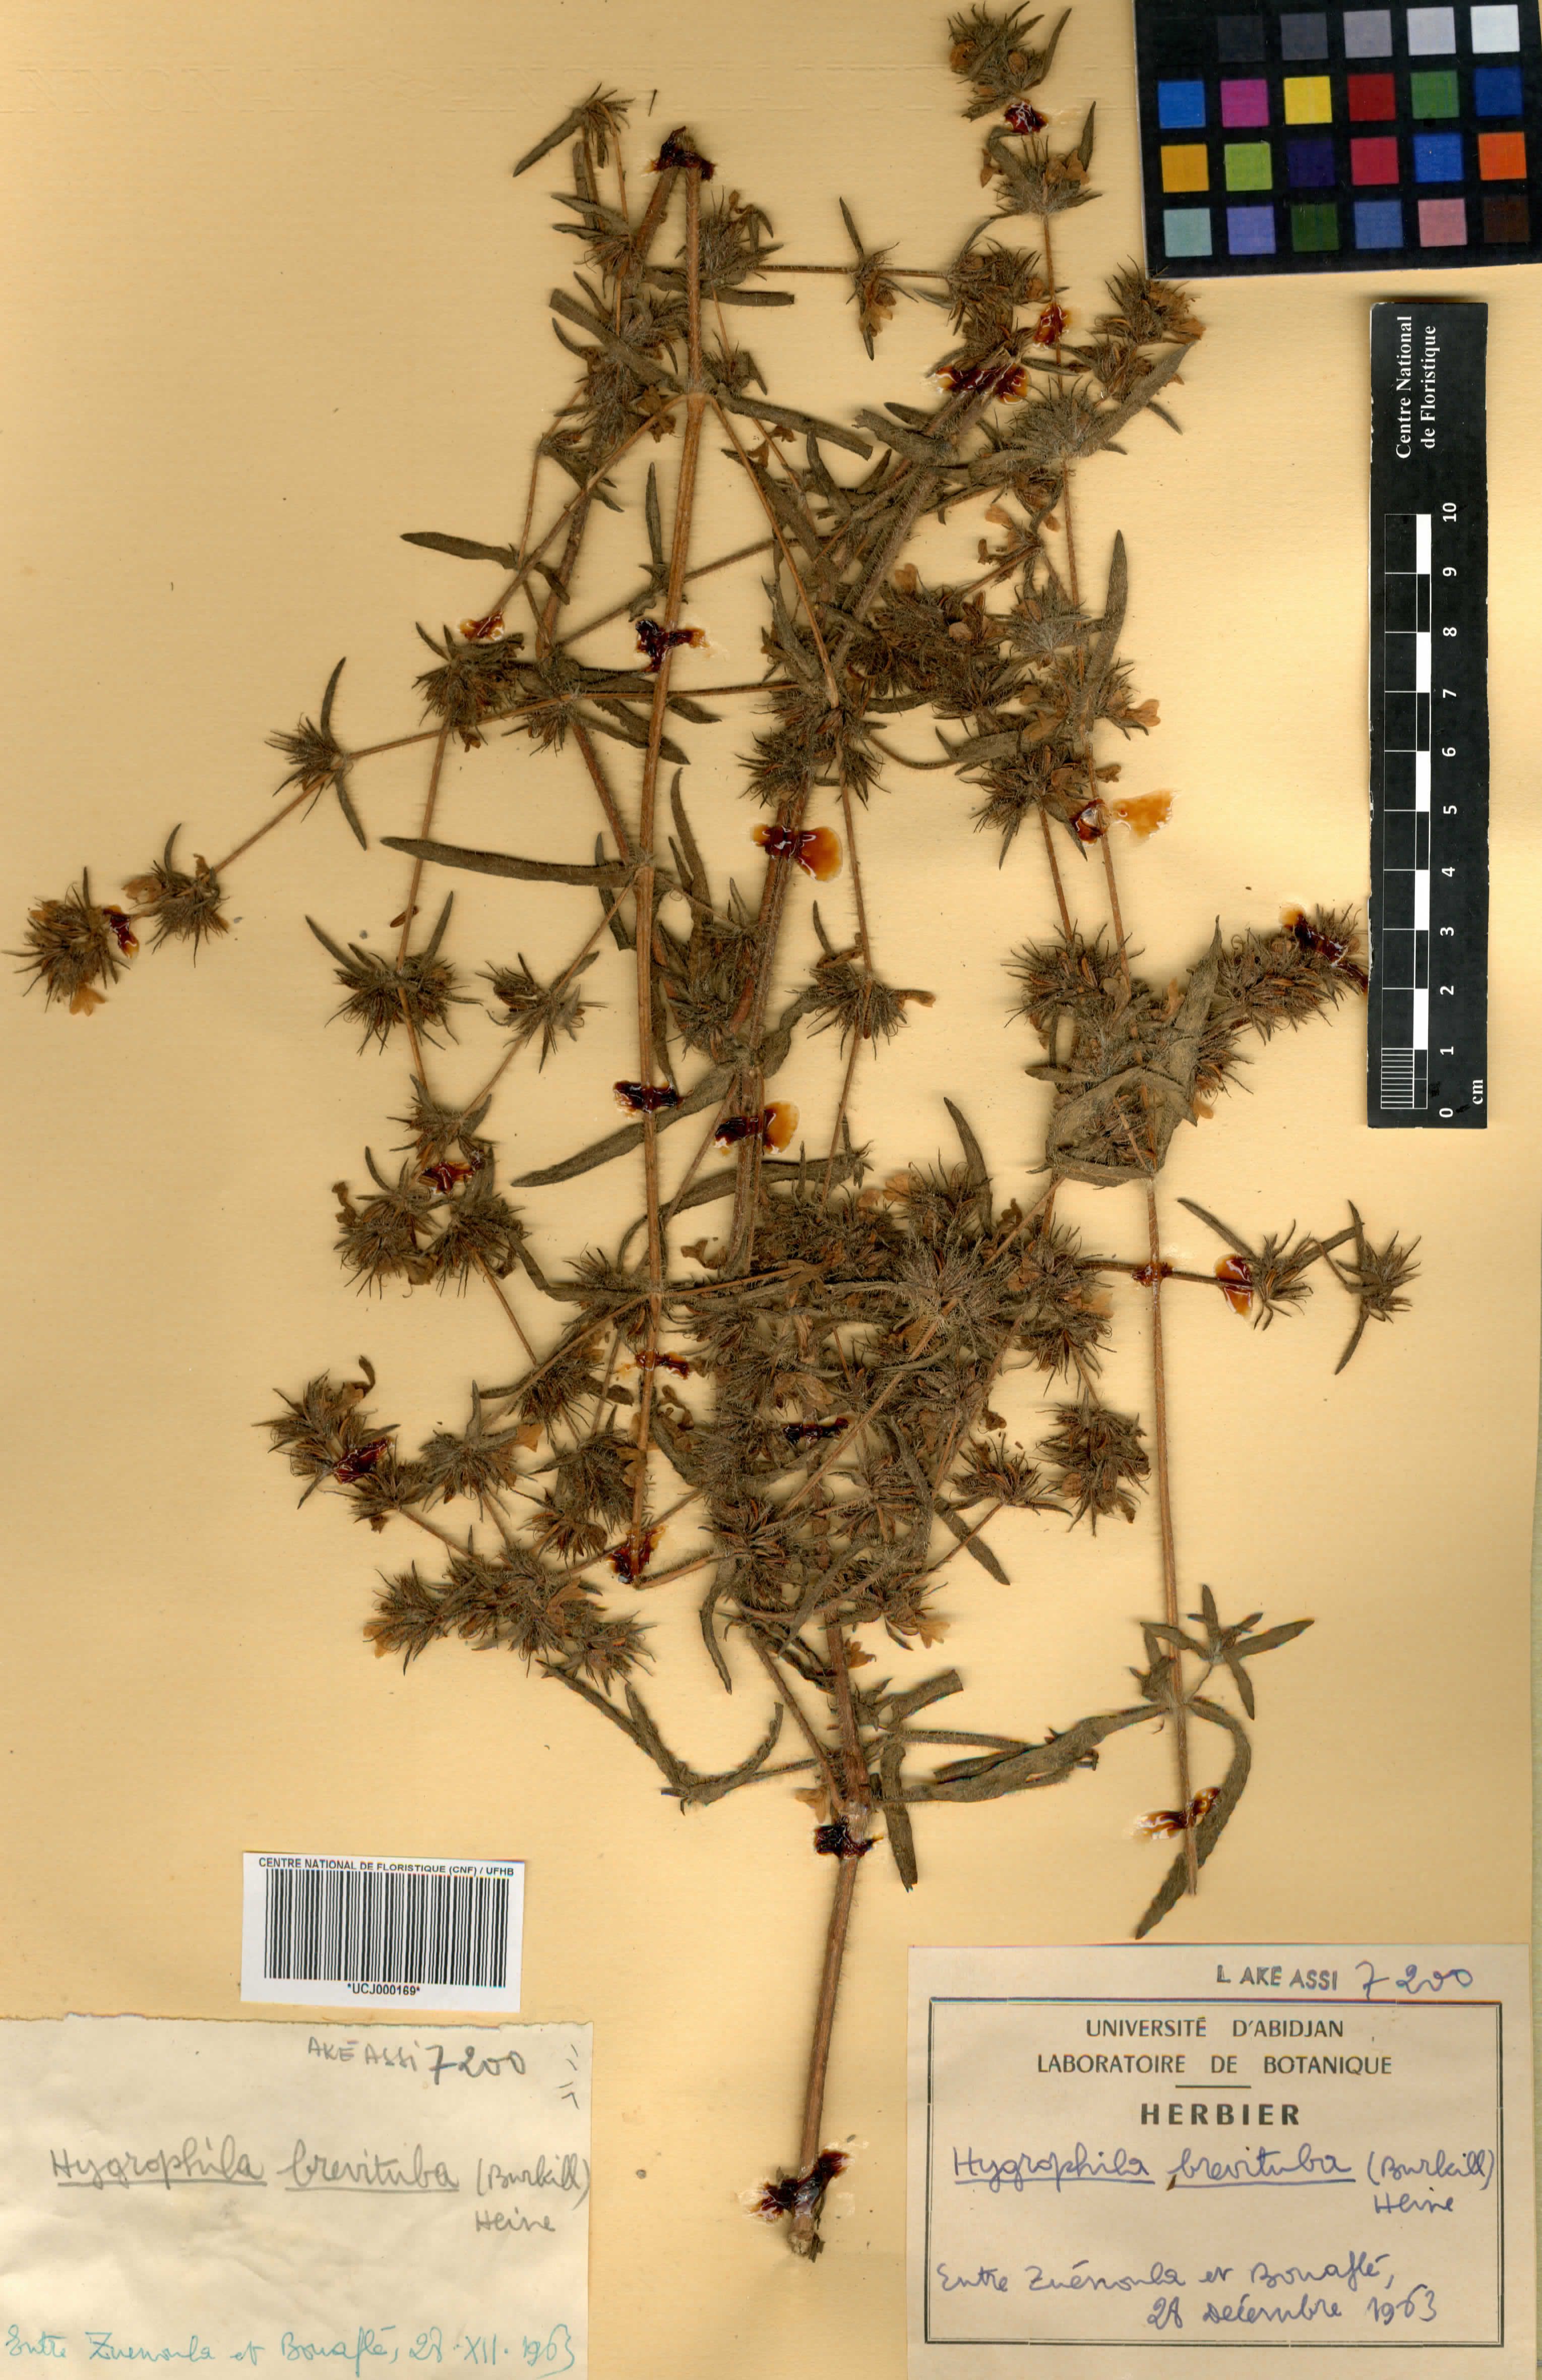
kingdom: Plantae
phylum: Tracheophyta
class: Magnoliopsida
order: Lamiales
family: Acanthaceae
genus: Hygrophila
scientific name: Hygrophila brevituba
